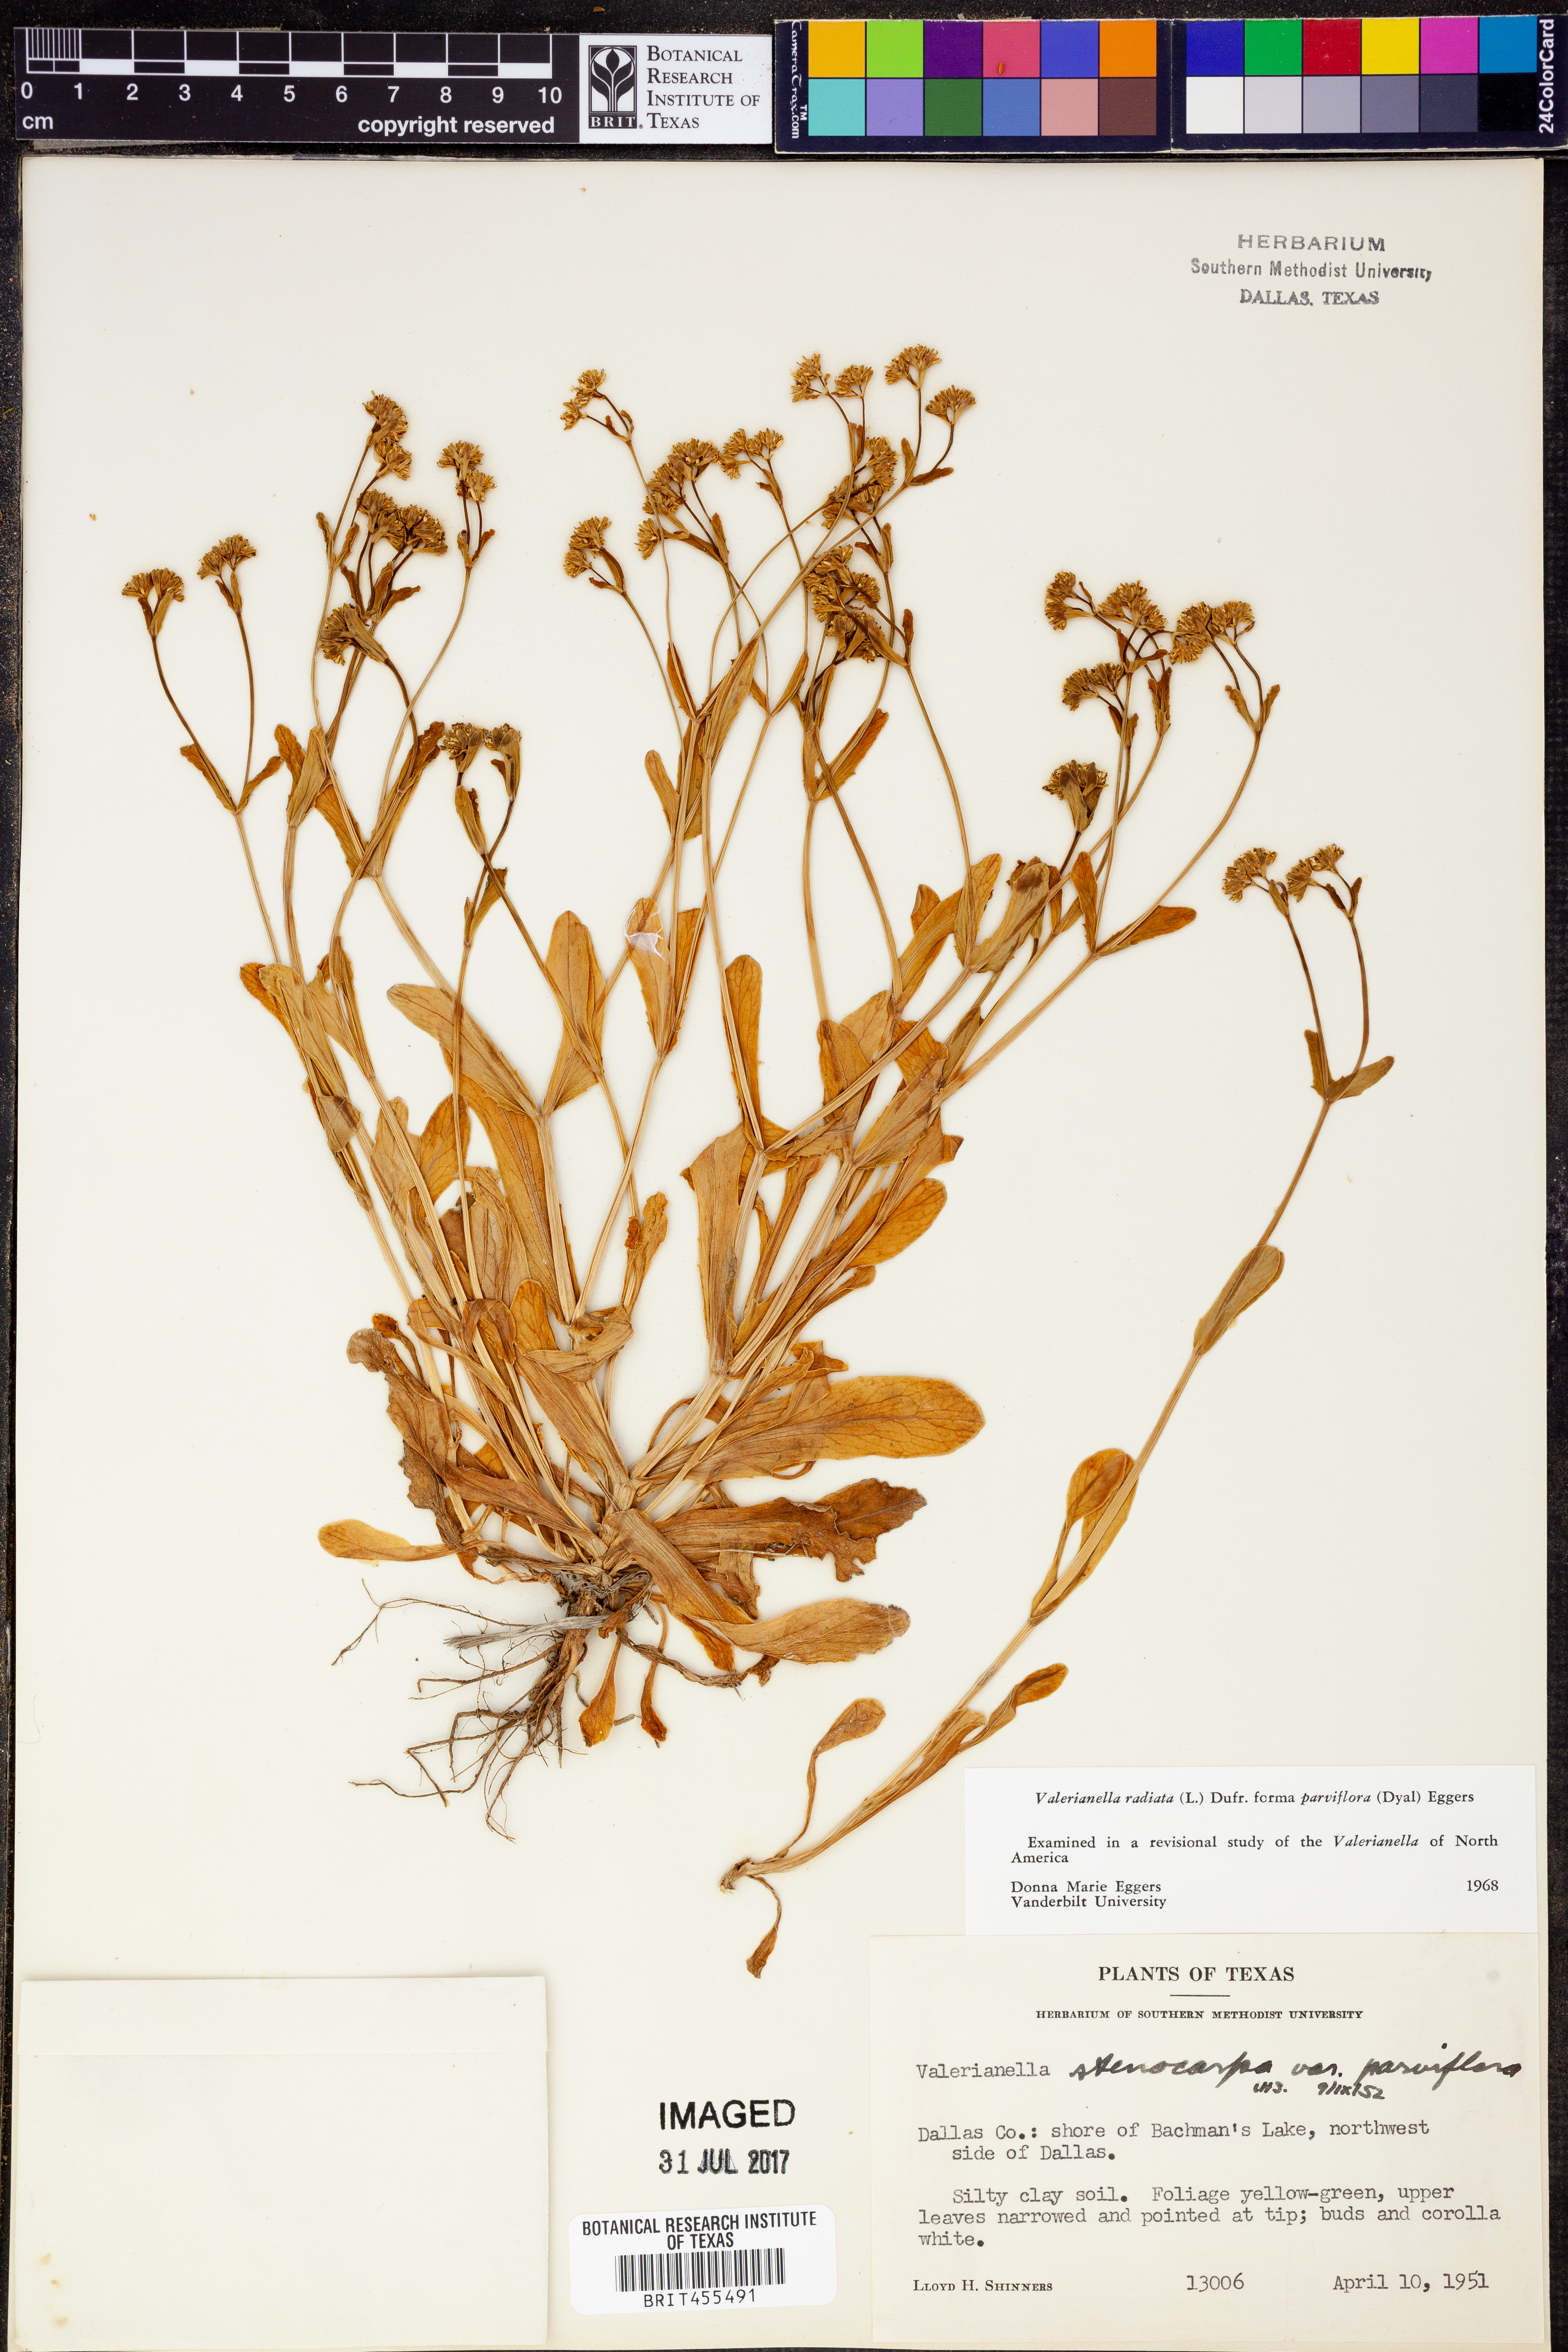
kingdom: Plantae
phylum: Tracheophyta
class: Magnoliopsida
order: Dipsacales
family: Caprifoliaceae
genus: Valerianella
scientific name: Valerianella radiata
